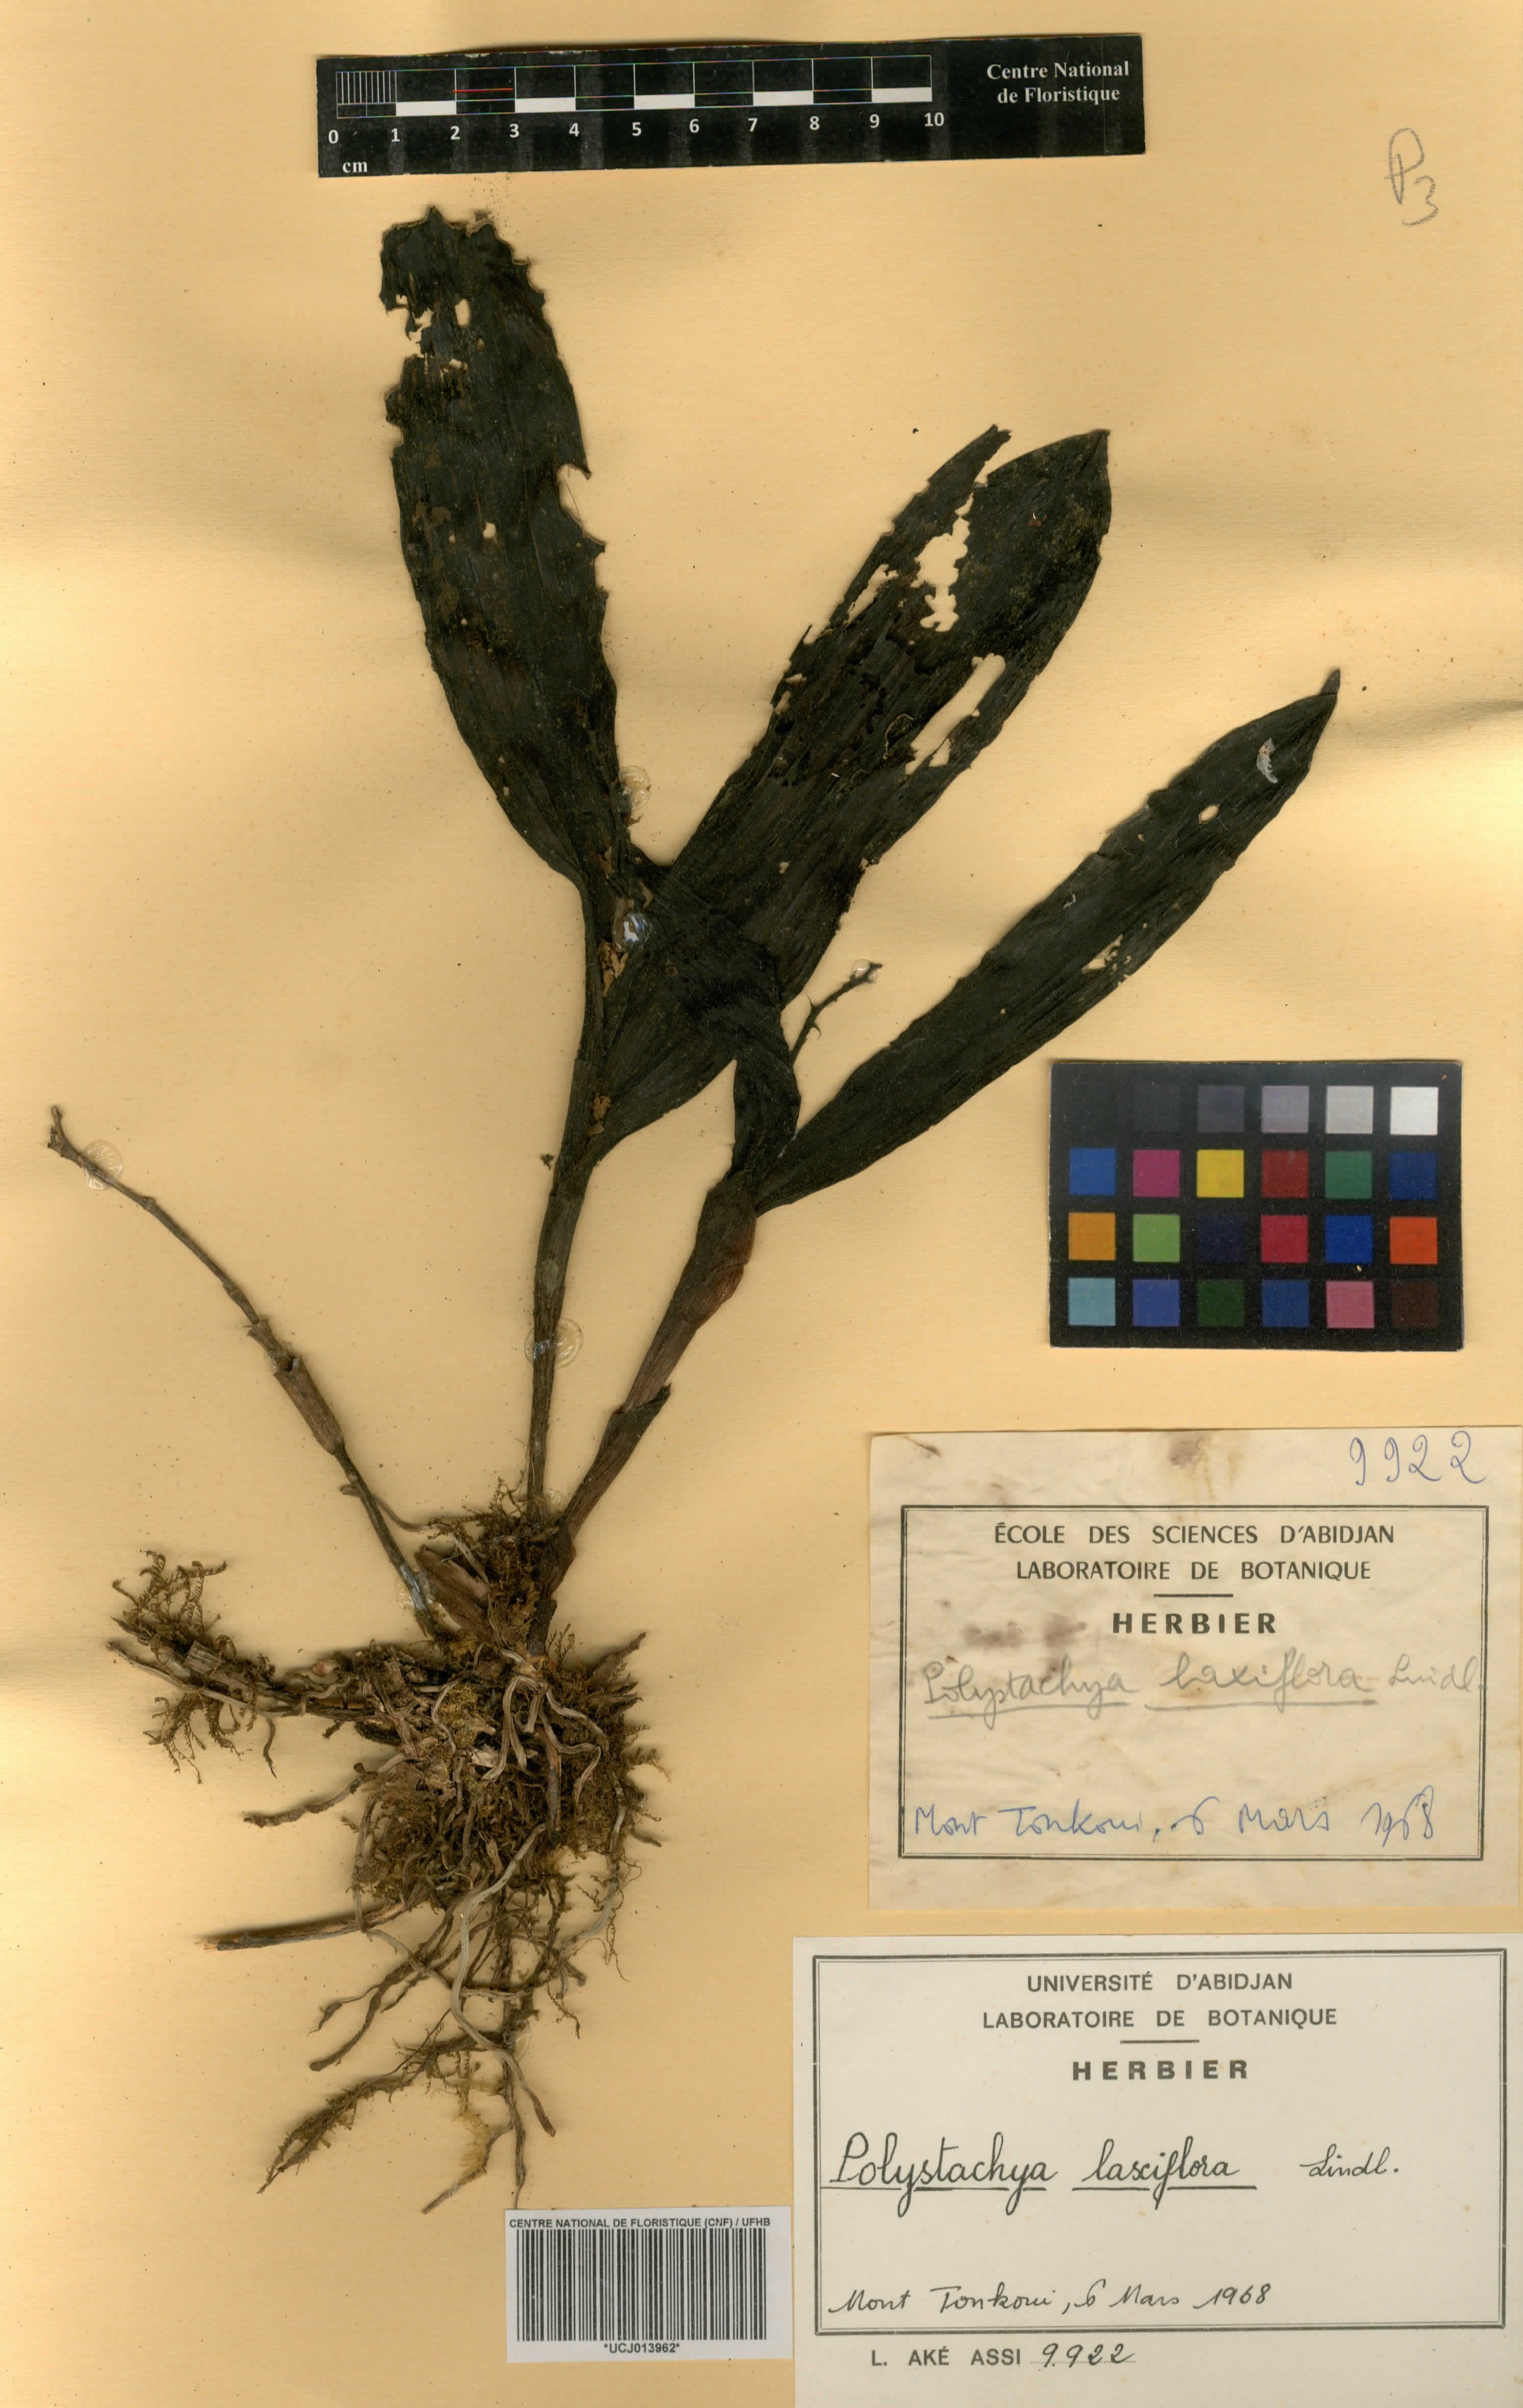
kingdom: Plantae
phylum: Tracheophyta
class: Liliopsida
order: Asparagales
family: Orchidaceae
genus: Polystachya
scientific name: Polystachya laxiflora
